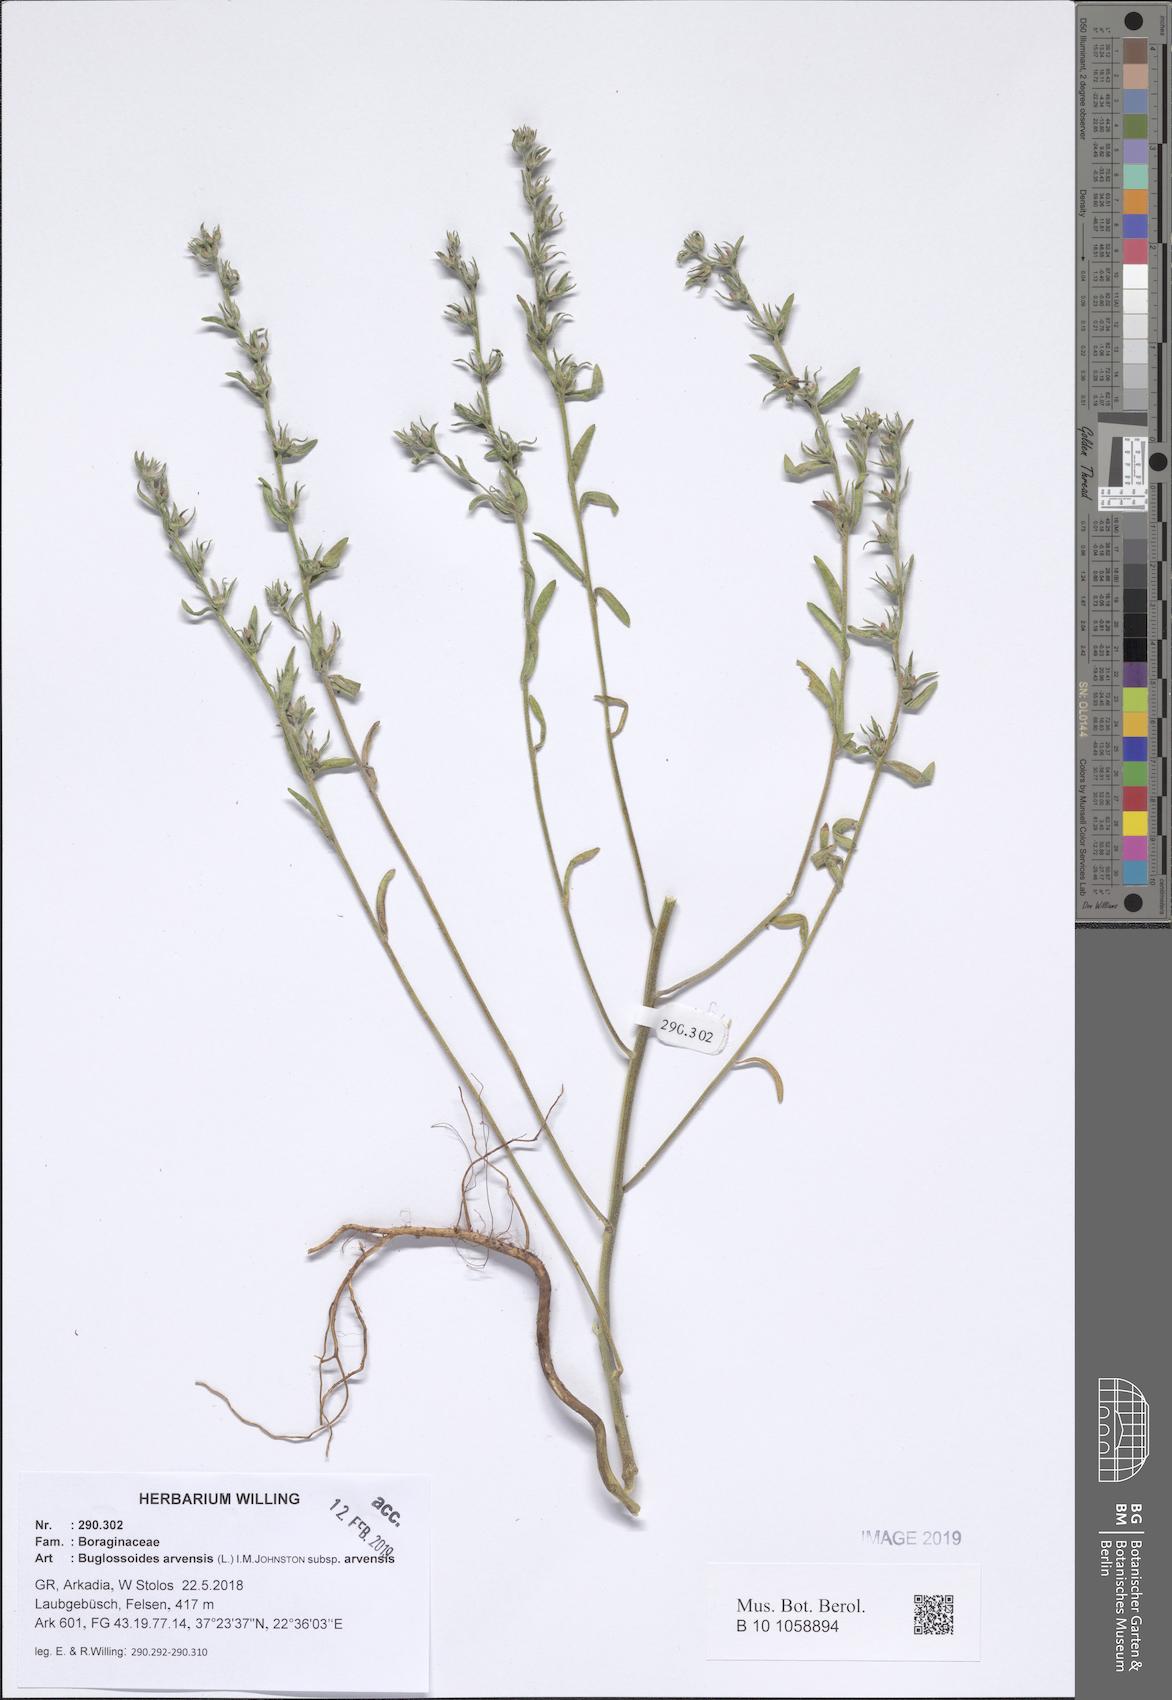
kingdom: Plantae
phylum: Tracheophyta
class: Magnoliopsida
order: Boraginales
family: Boraginaceae
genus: Buglossoides
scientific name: Buglossoides arvensis
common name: Corn gromwell
